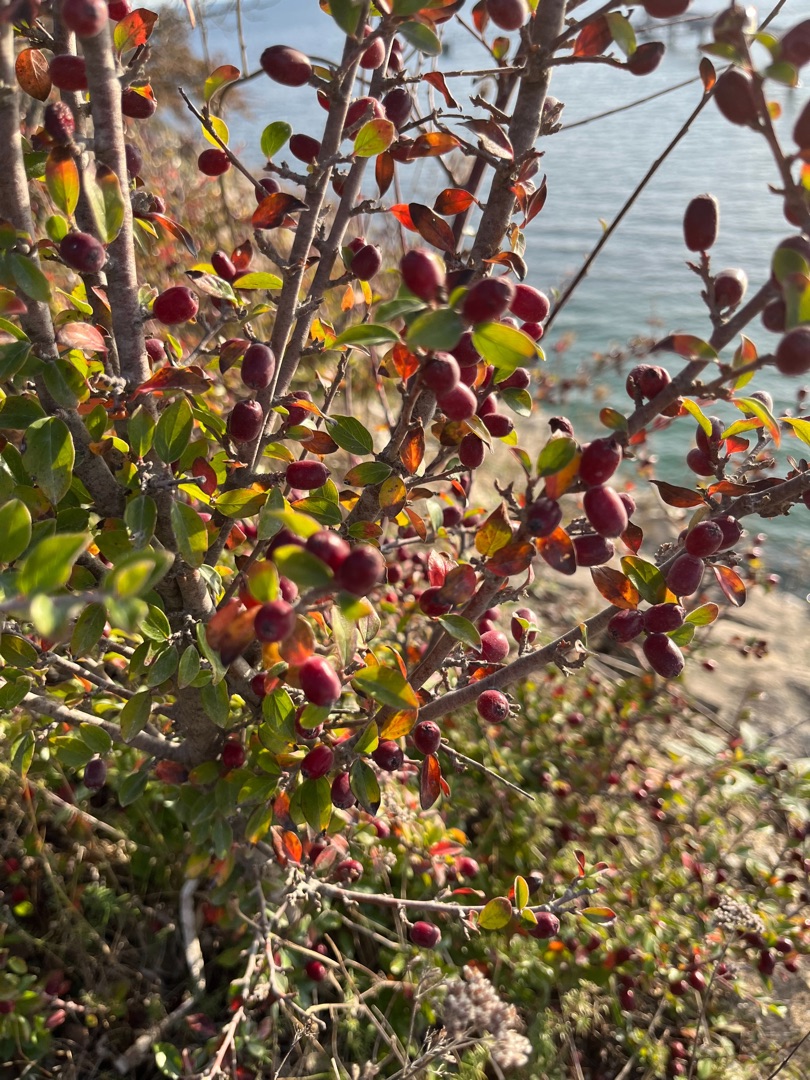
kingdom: Plantae
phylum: Tracheophyta
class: Magnoliopsida
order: Rosales
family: Rosaceae
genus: Cotoneaster
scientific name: Cotoneaster divaricatus
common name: Vifte-dværgmispel
